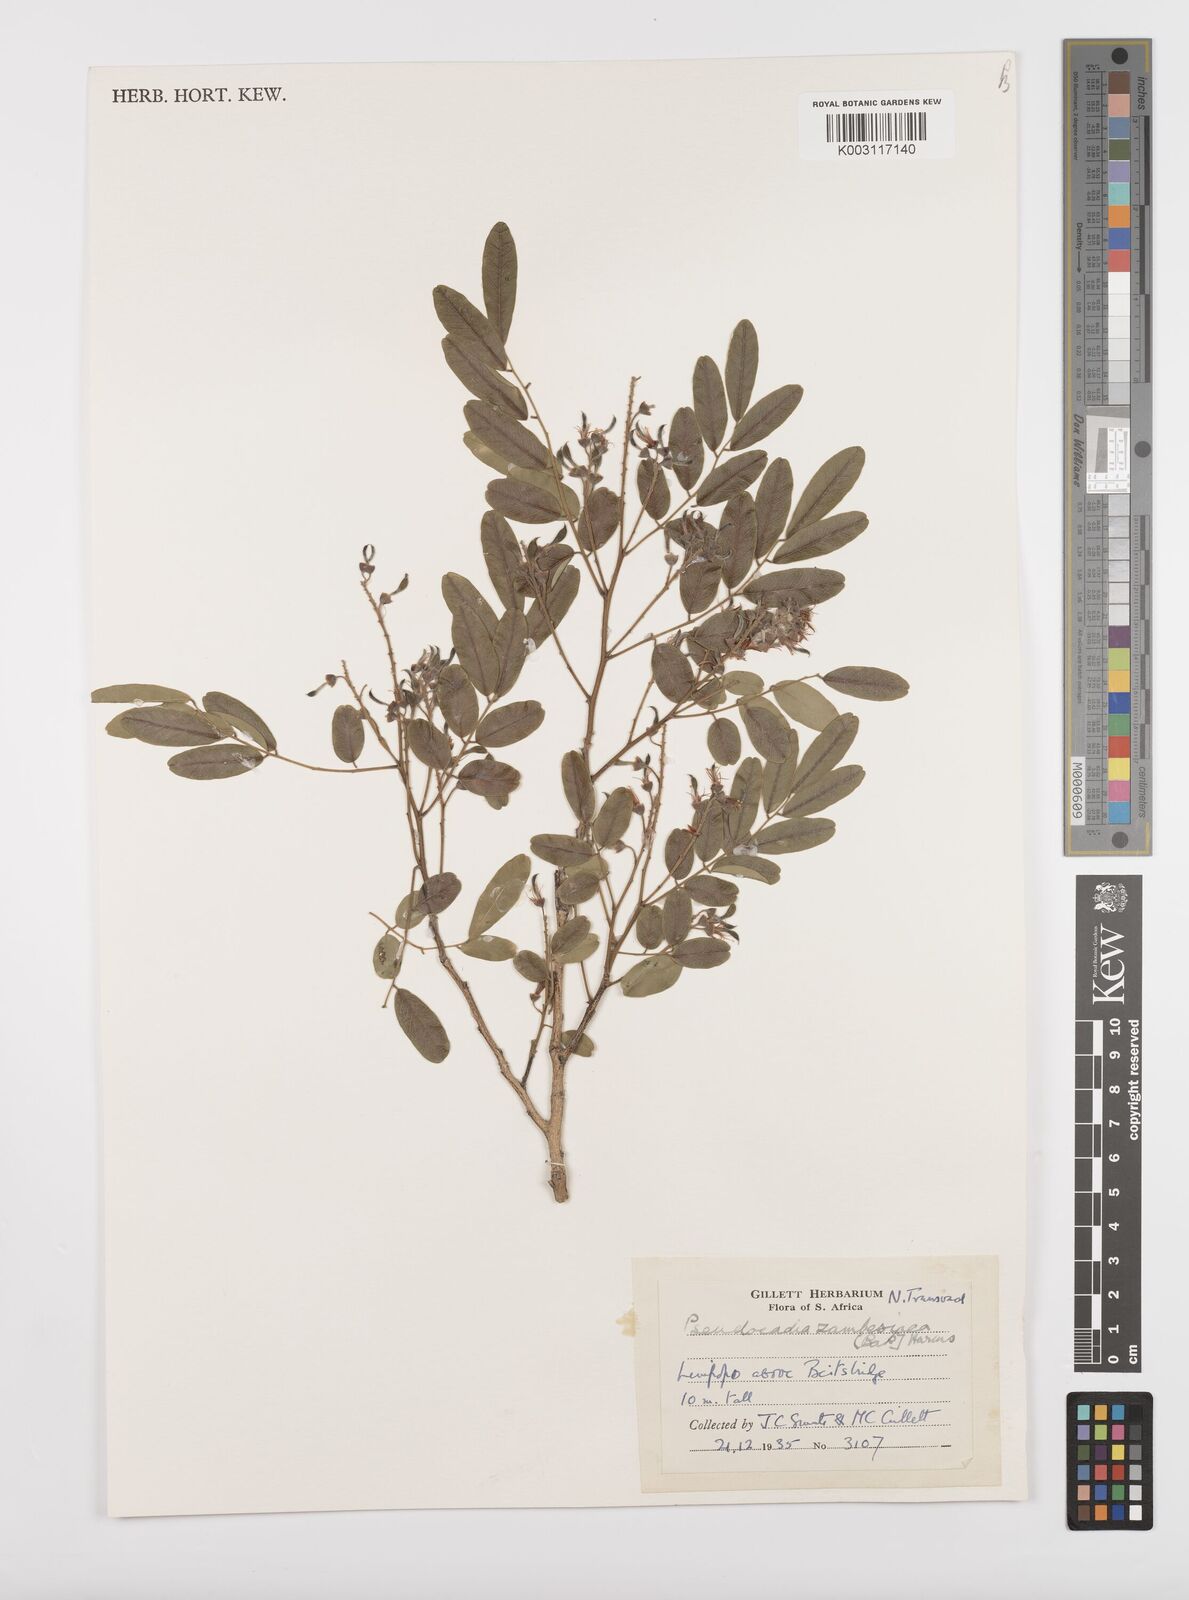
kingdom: Plantae
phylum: Tracheophyta
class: Magnoliopsida
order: Fabales
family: Fabaceae
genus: Xanthocercis
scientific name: Xanthocercis zambesiaca
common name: Nyala-tree
